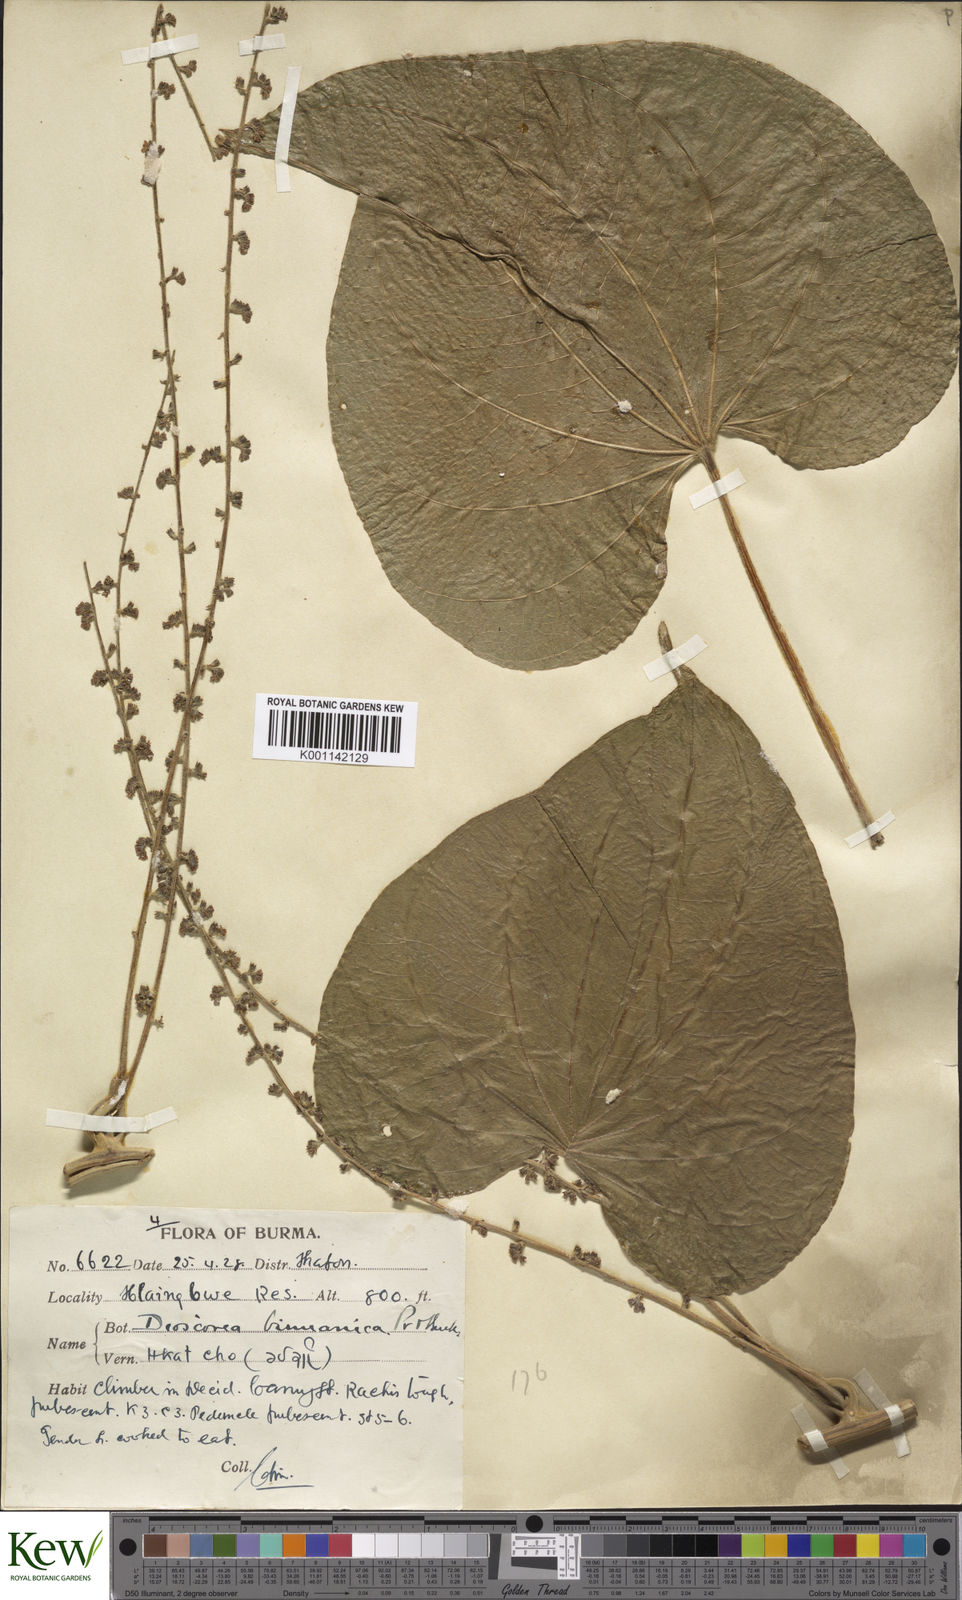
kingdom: Plantae
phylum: Tracheophyta
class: Liliopsida
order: Dioscoreales
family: Dioscoreaceae
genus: Dioscorea
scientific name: Dioscorea birmanica
